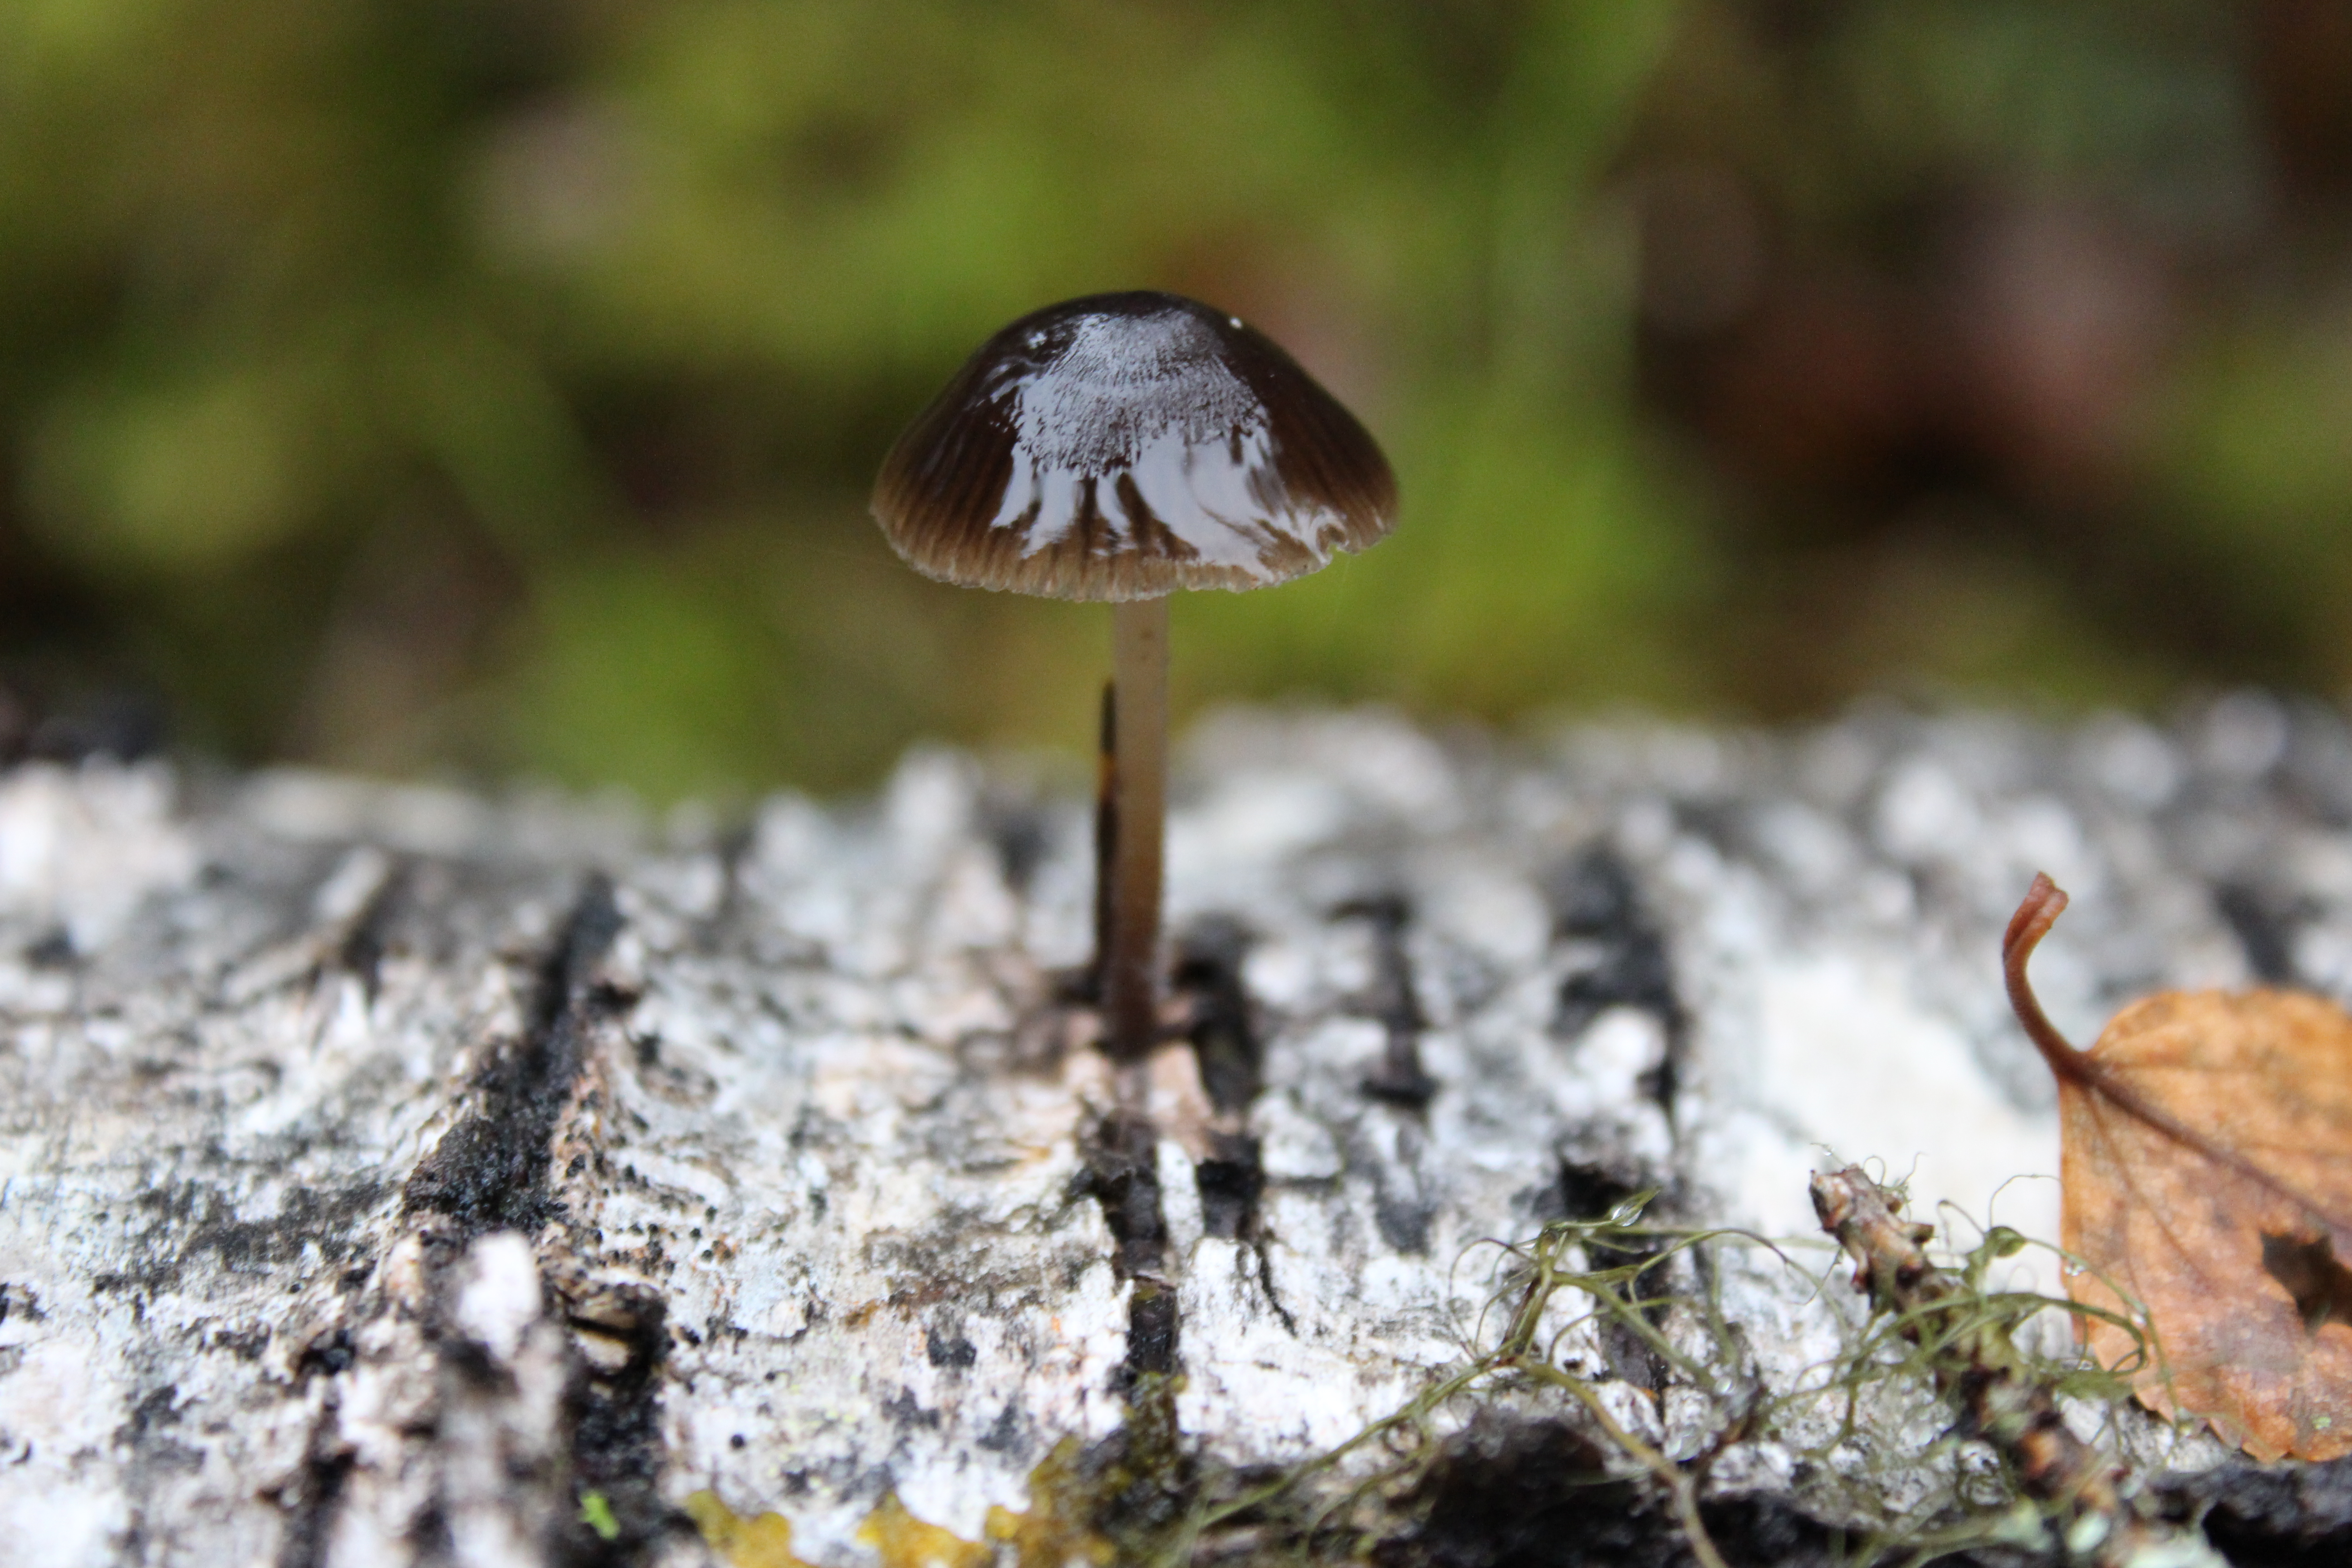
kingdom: Fungi
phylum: Basidiomycota
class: Agaricomycetes
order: Agaricales
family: Mycenaceae
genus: Mycena
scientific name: Mycena tintinnabulum
